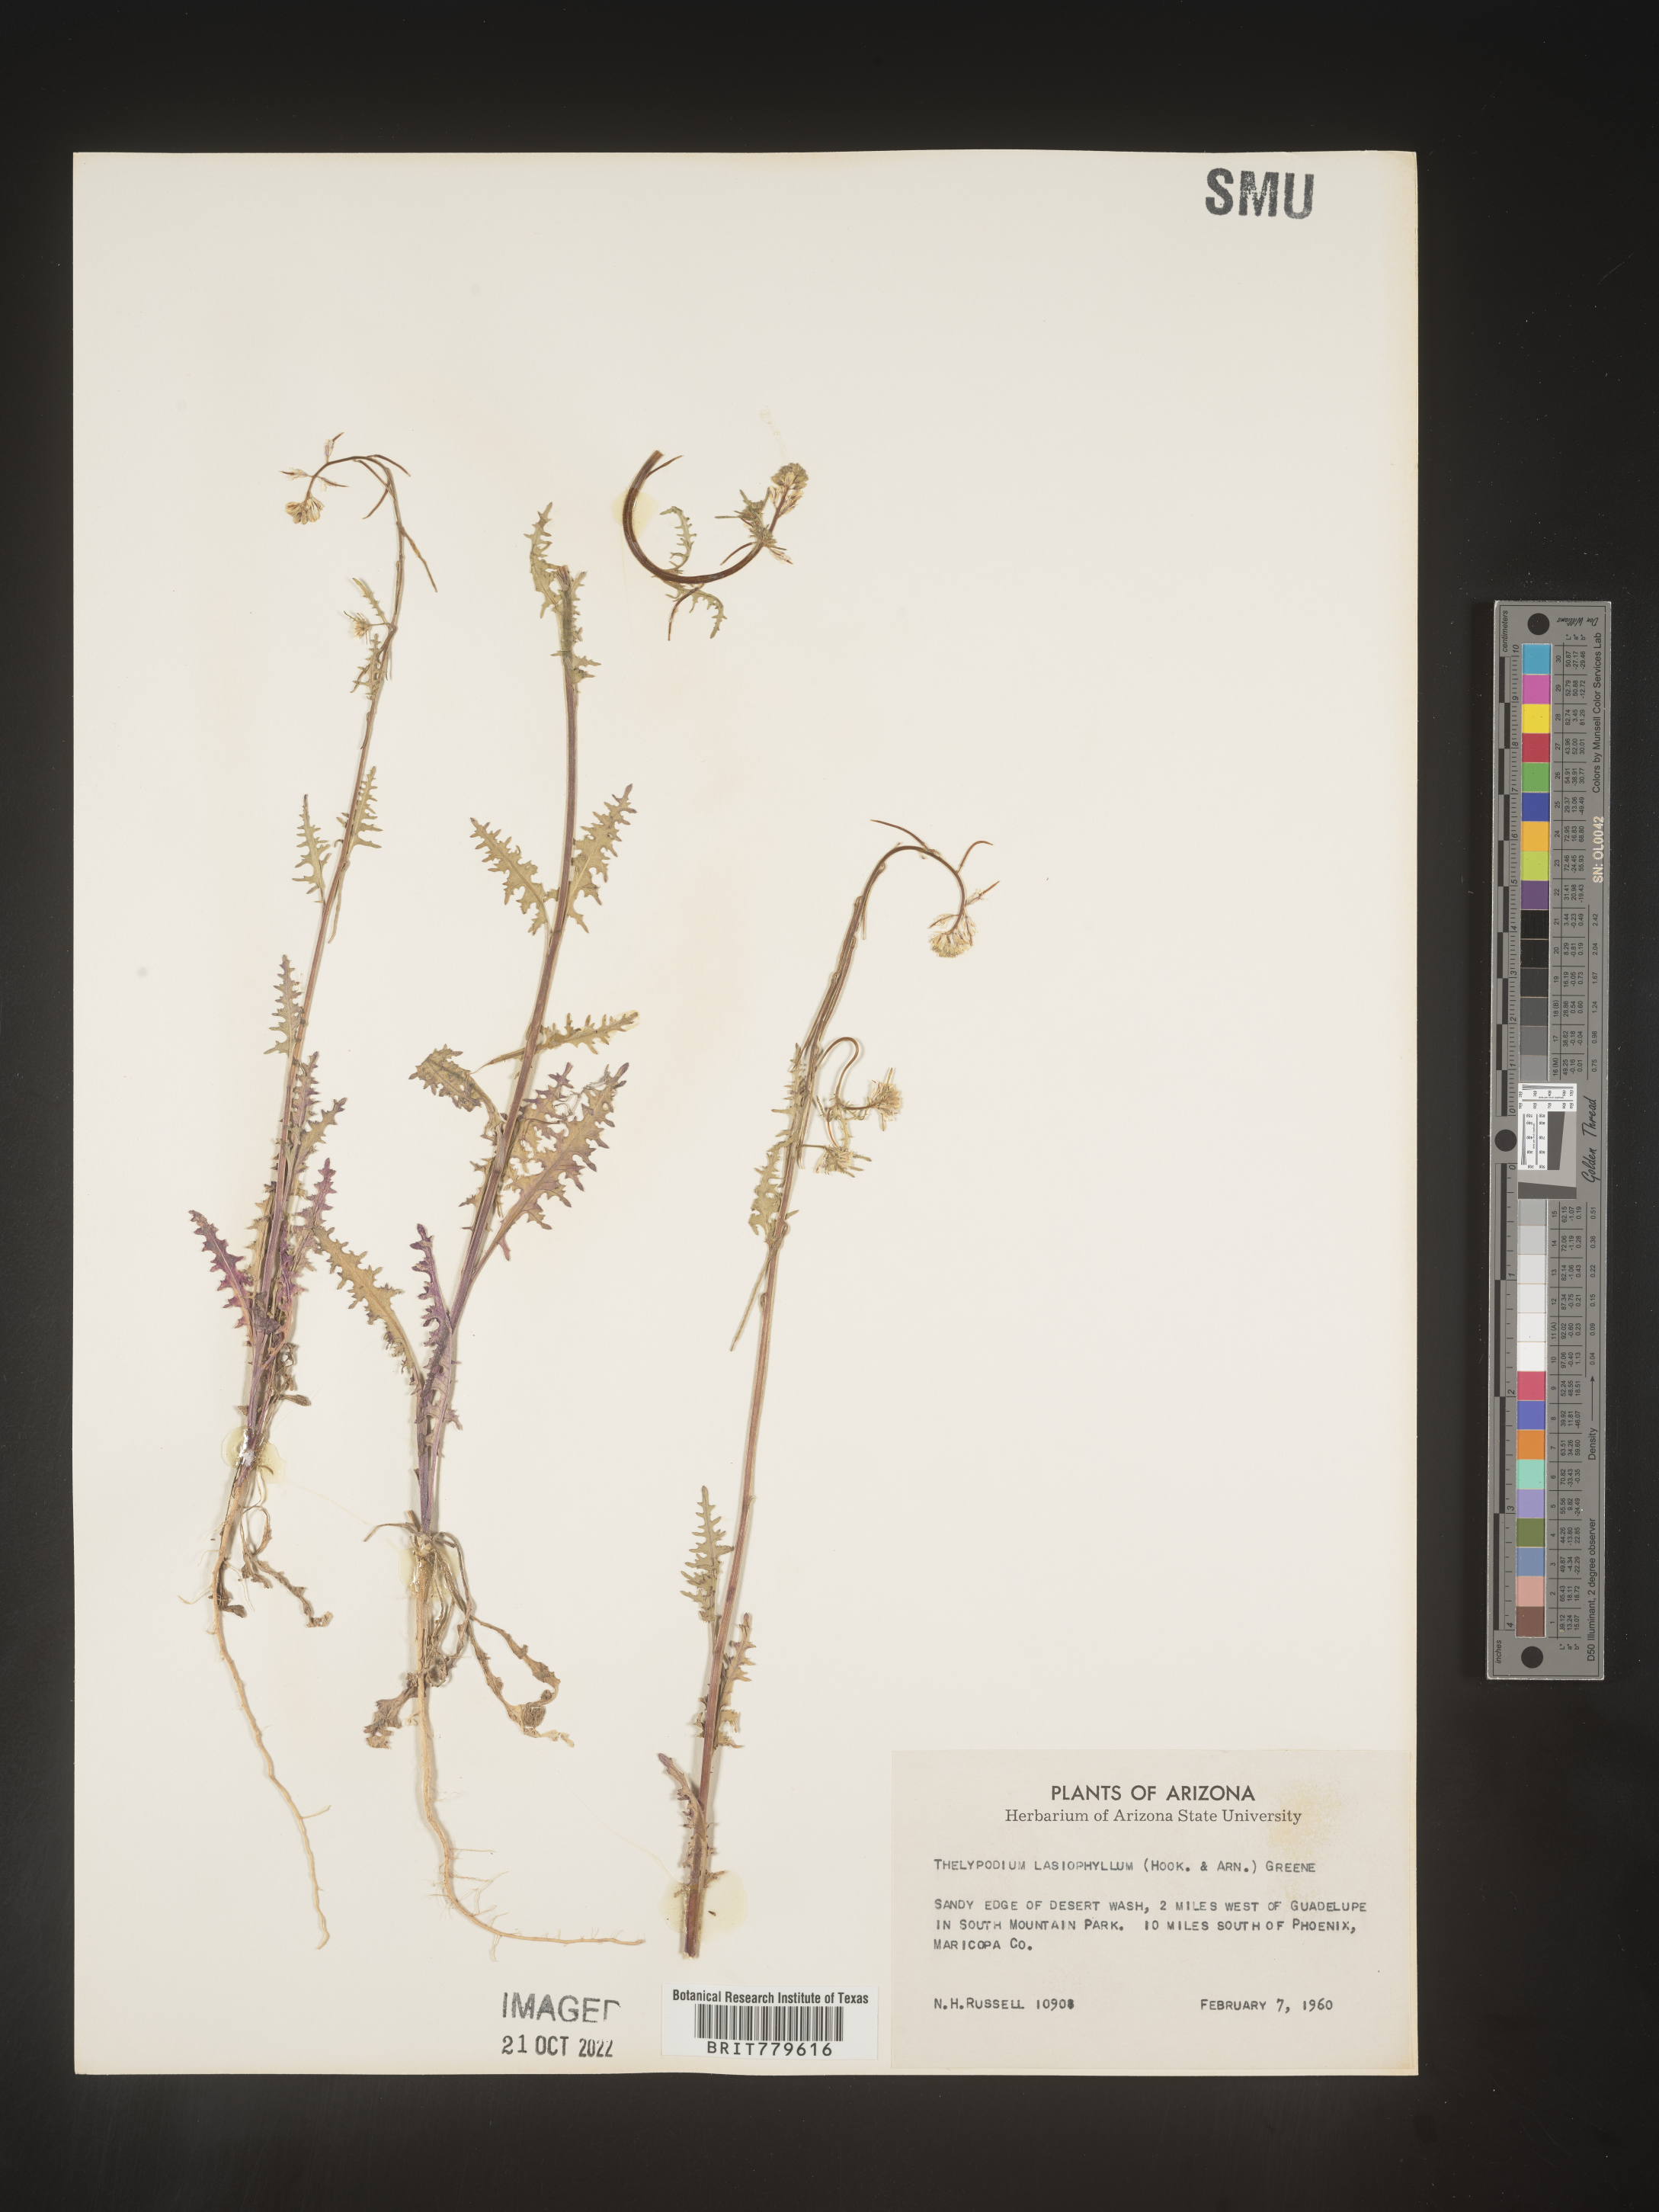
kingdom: Plantae
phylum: Tracheophyta
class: Magnoliopsida
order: Brassicales
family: Brassicaceae
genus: Thelypodium
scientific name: Thelypodium
